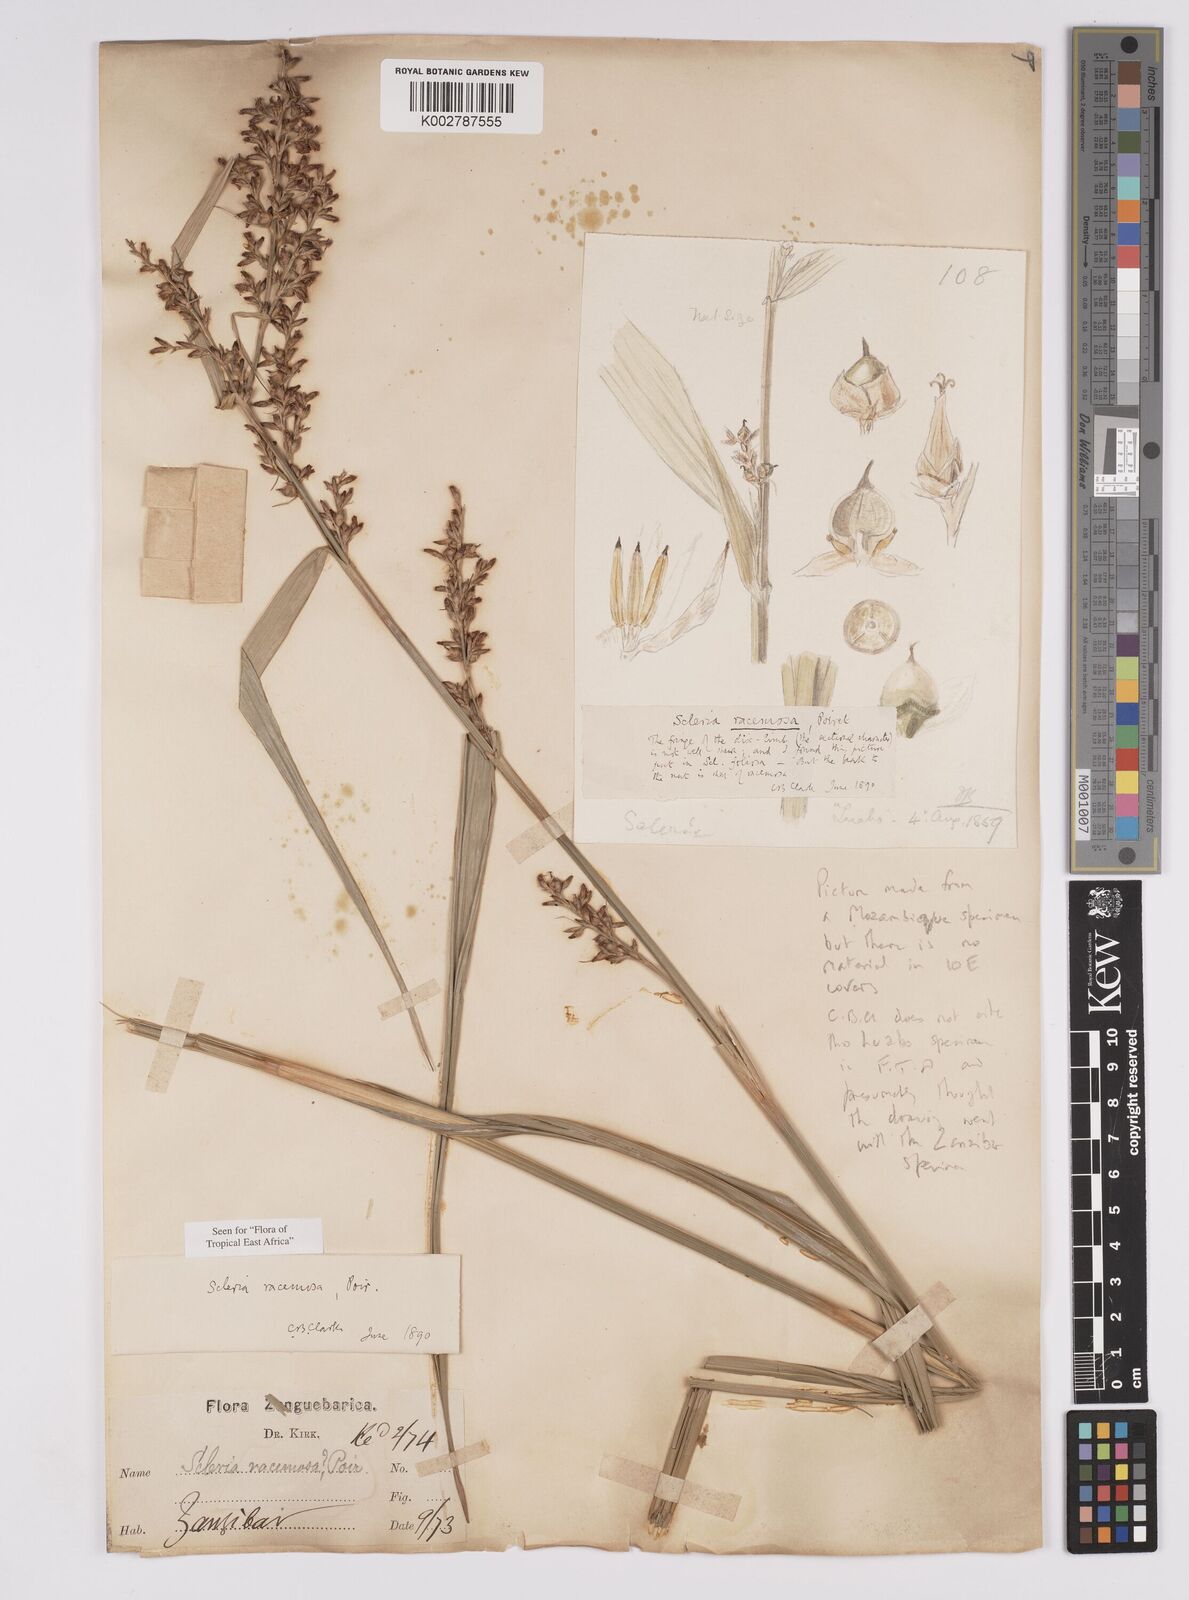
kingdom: Plantae
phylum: Tracheophyta
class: Liliopsida
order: Poales
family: Cyperaceae
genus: Scleria
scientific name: Scleria racemosa
